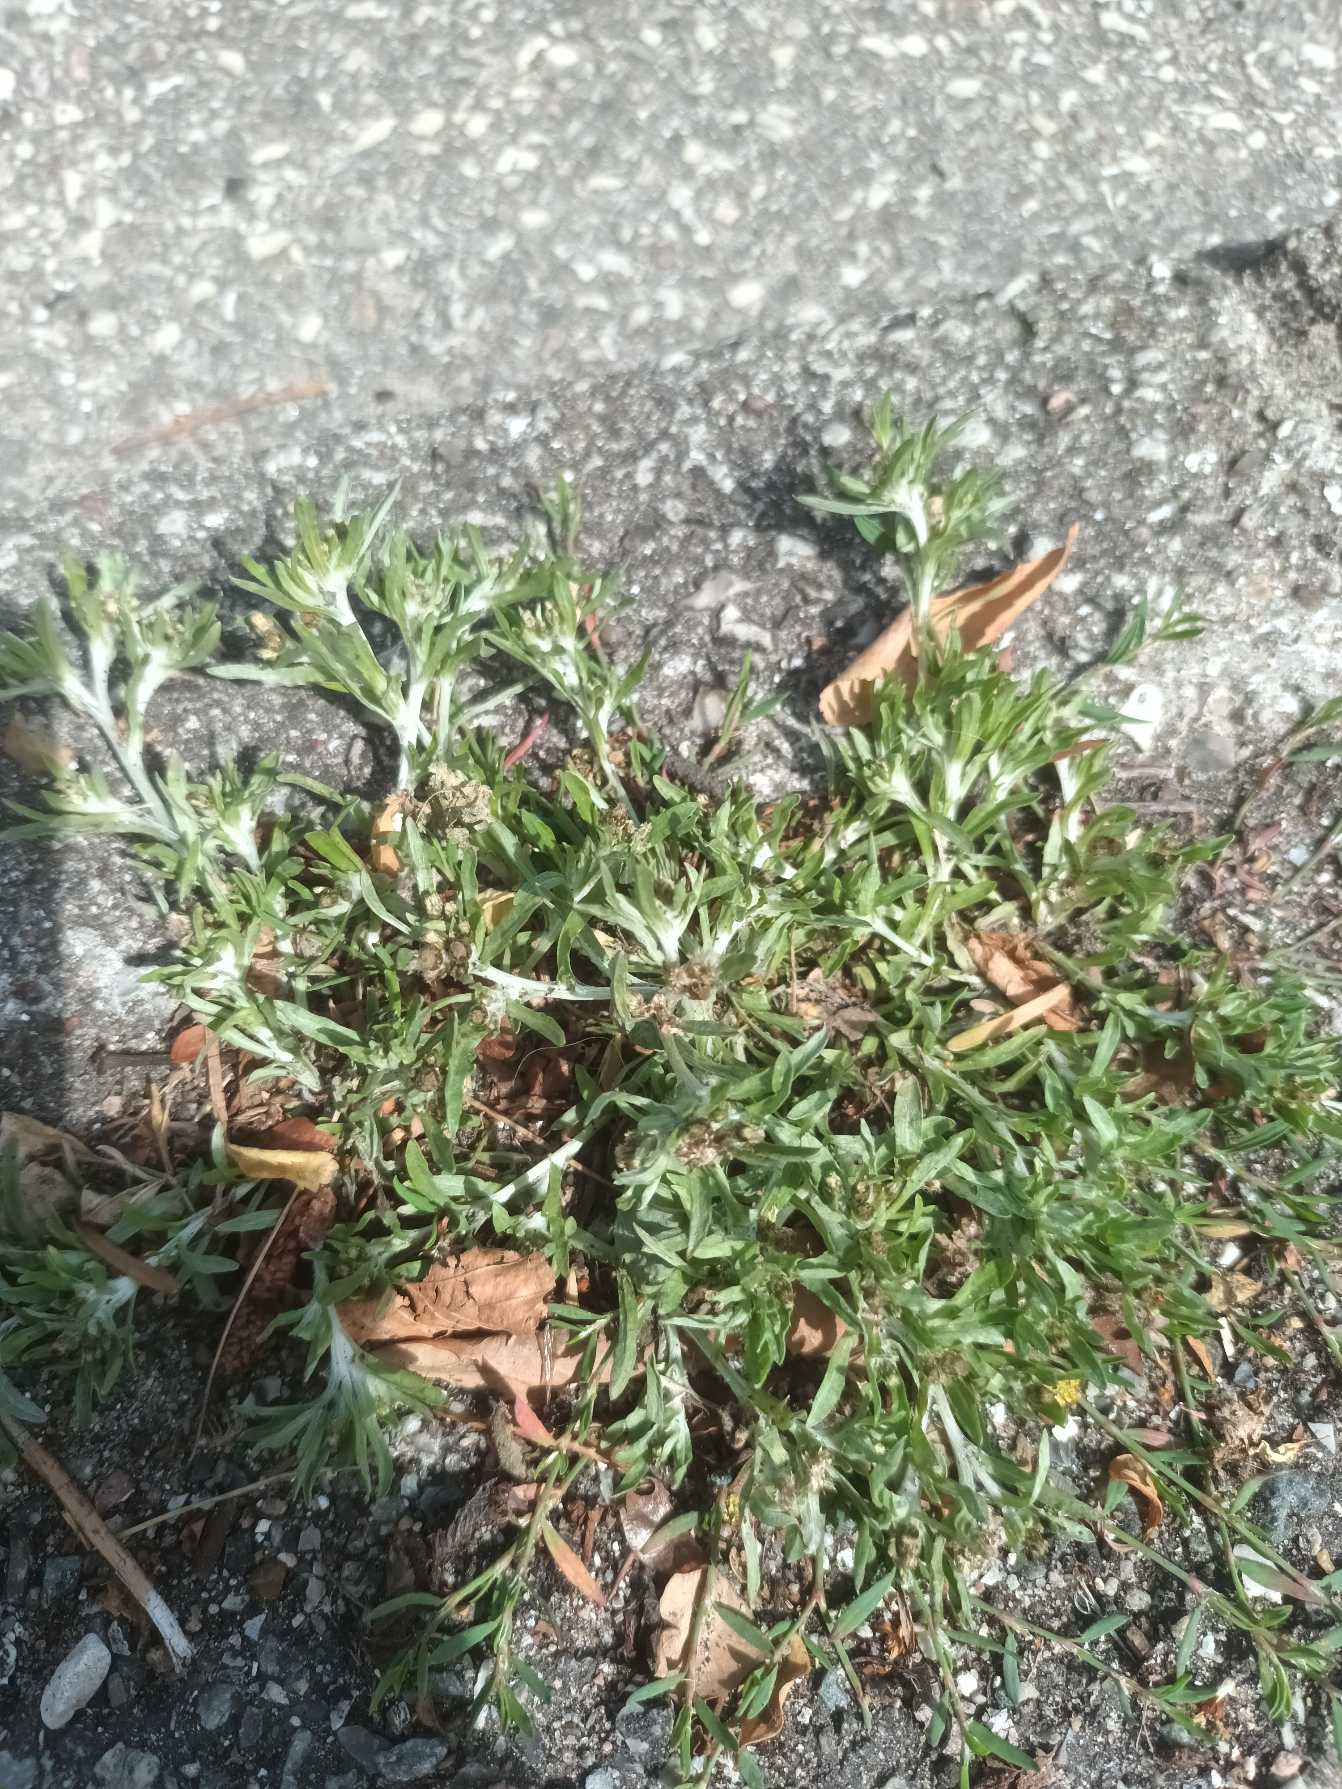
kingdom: Plantae
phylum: Tracheophyta
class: Magnoliopsida
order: Asterales
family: Asteraceae
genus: Gnaphalium
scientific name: Gnaphalium uliginosum
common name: Sump-evighedsblomst
